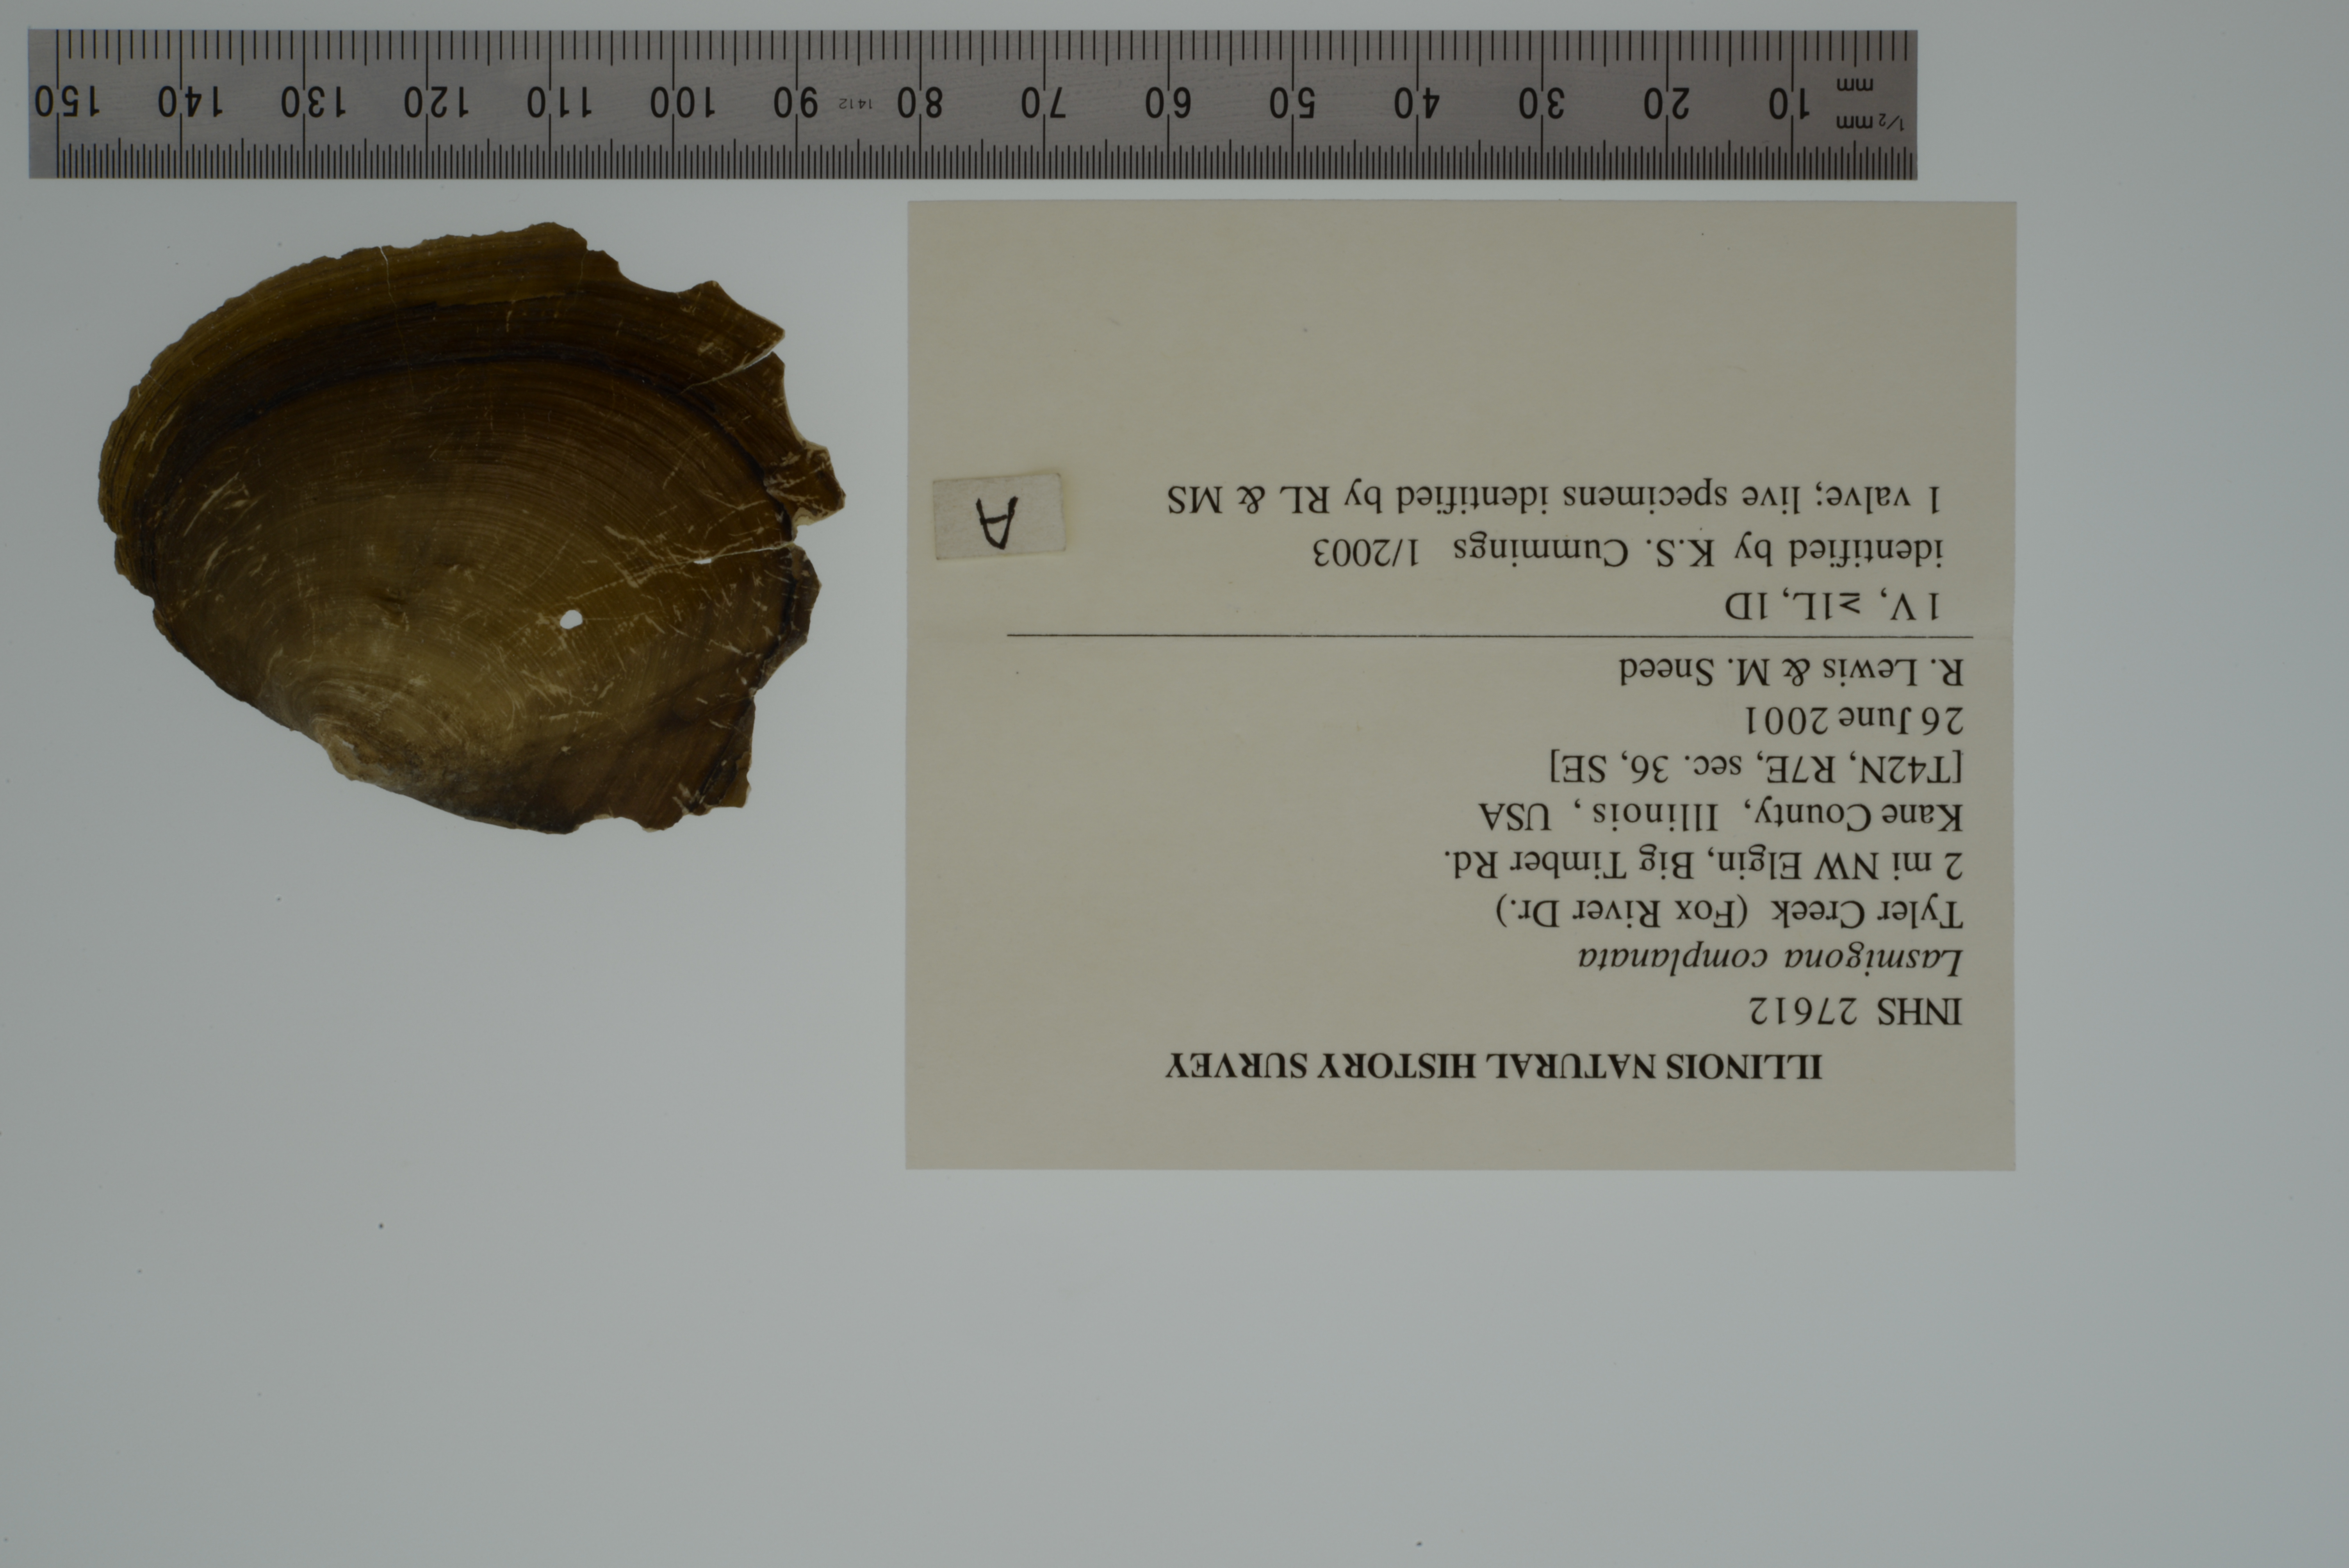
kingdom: Animalia
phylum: Mollusca
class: Bivalvia
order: Unionida
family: Unionidae
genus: Lasmigona
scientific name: Lasmigona complanata
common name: White heelsplitter
